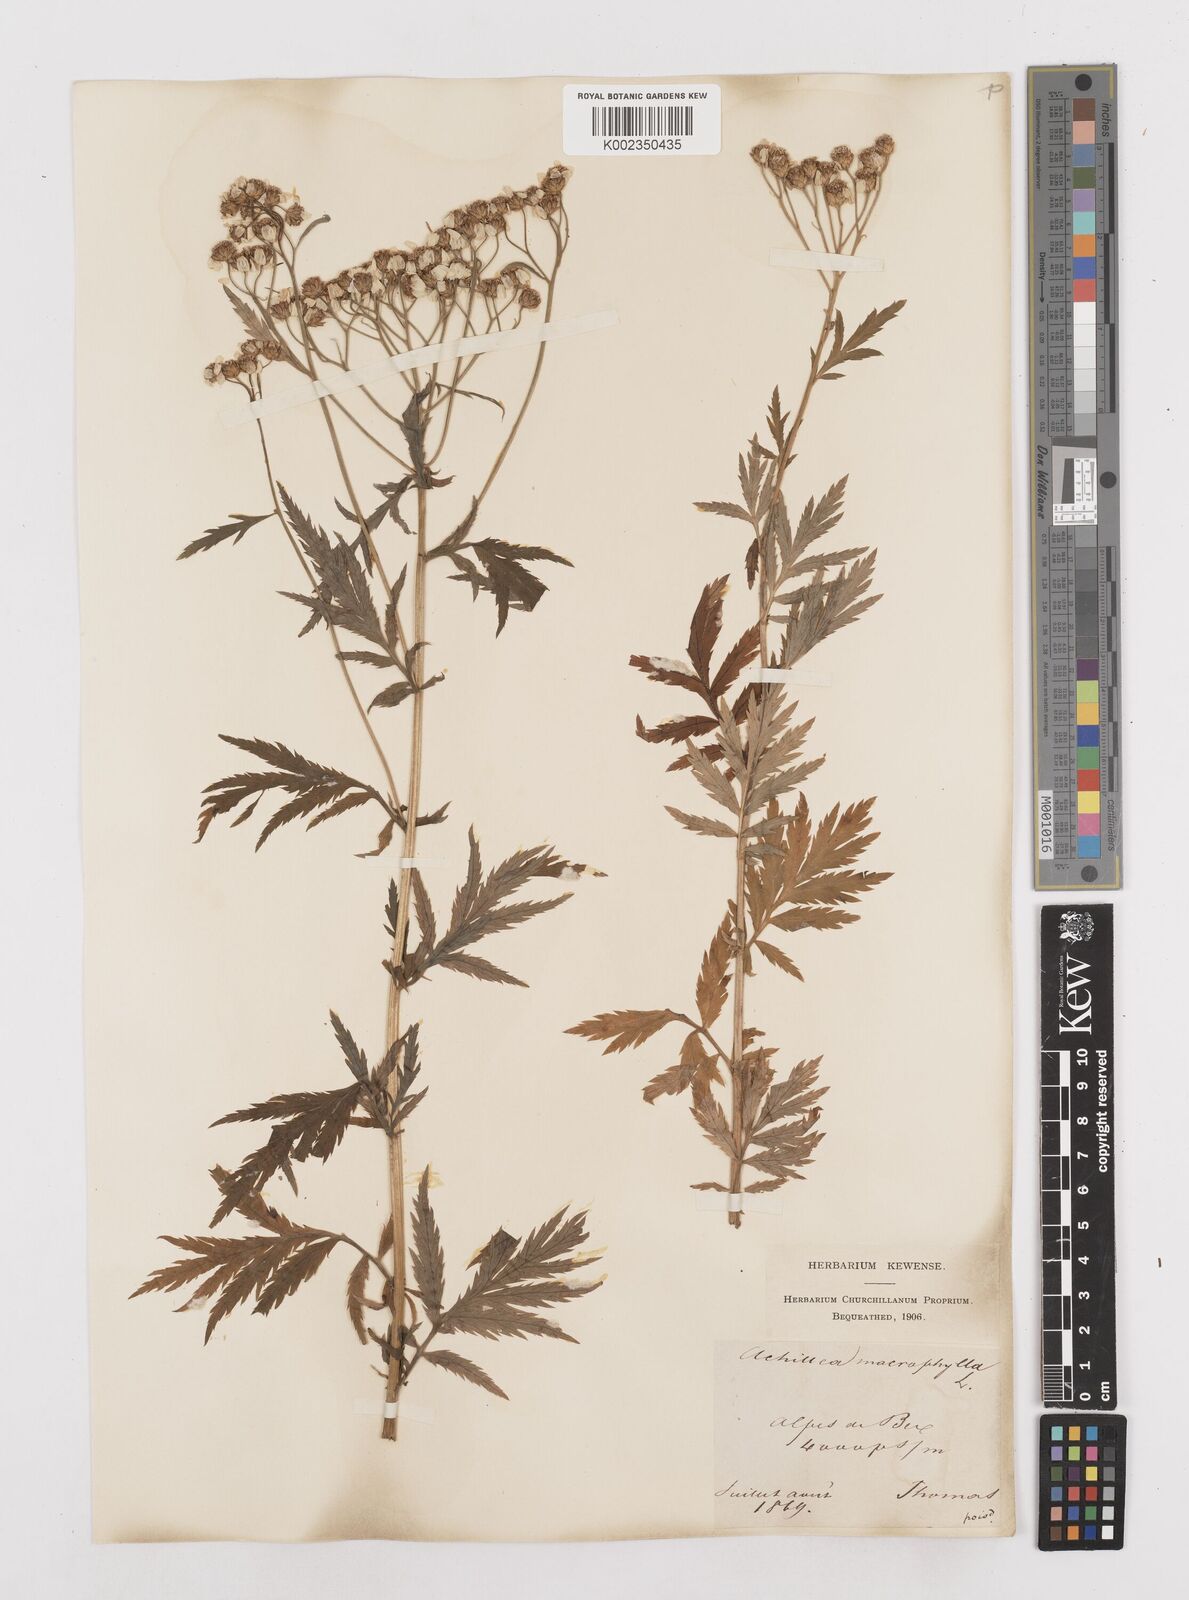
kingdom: Plantae
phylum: Tracheophyta
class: Magnoliopsida
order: Asterales
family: Asteraceae
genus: Achillea
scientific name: Achillea macrophylla
